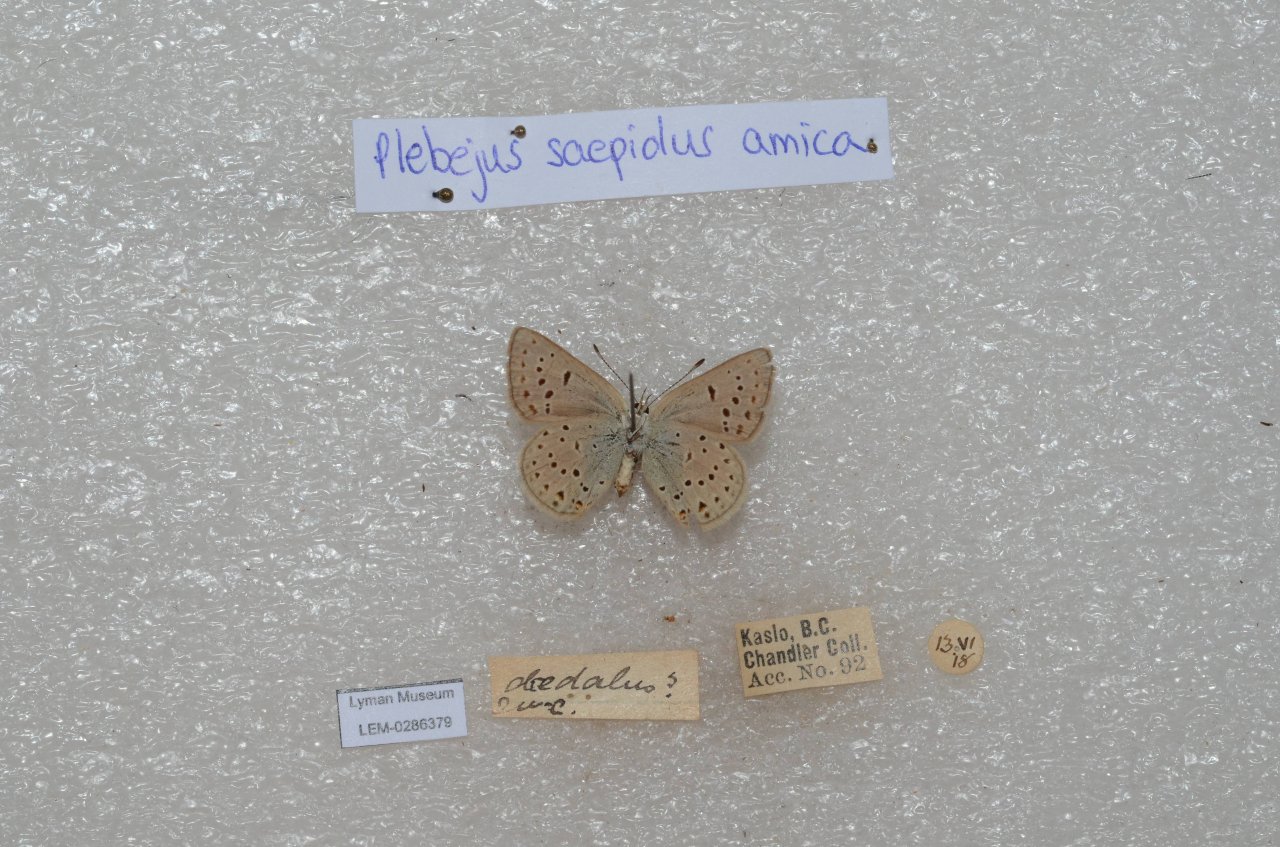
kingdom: Animalia
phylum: Arthropoda
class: Insecta
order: Lepidoptera
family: Lycaenidae
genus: Plebejus
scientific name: Plebejus saepiolus
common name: Greenish Blue
